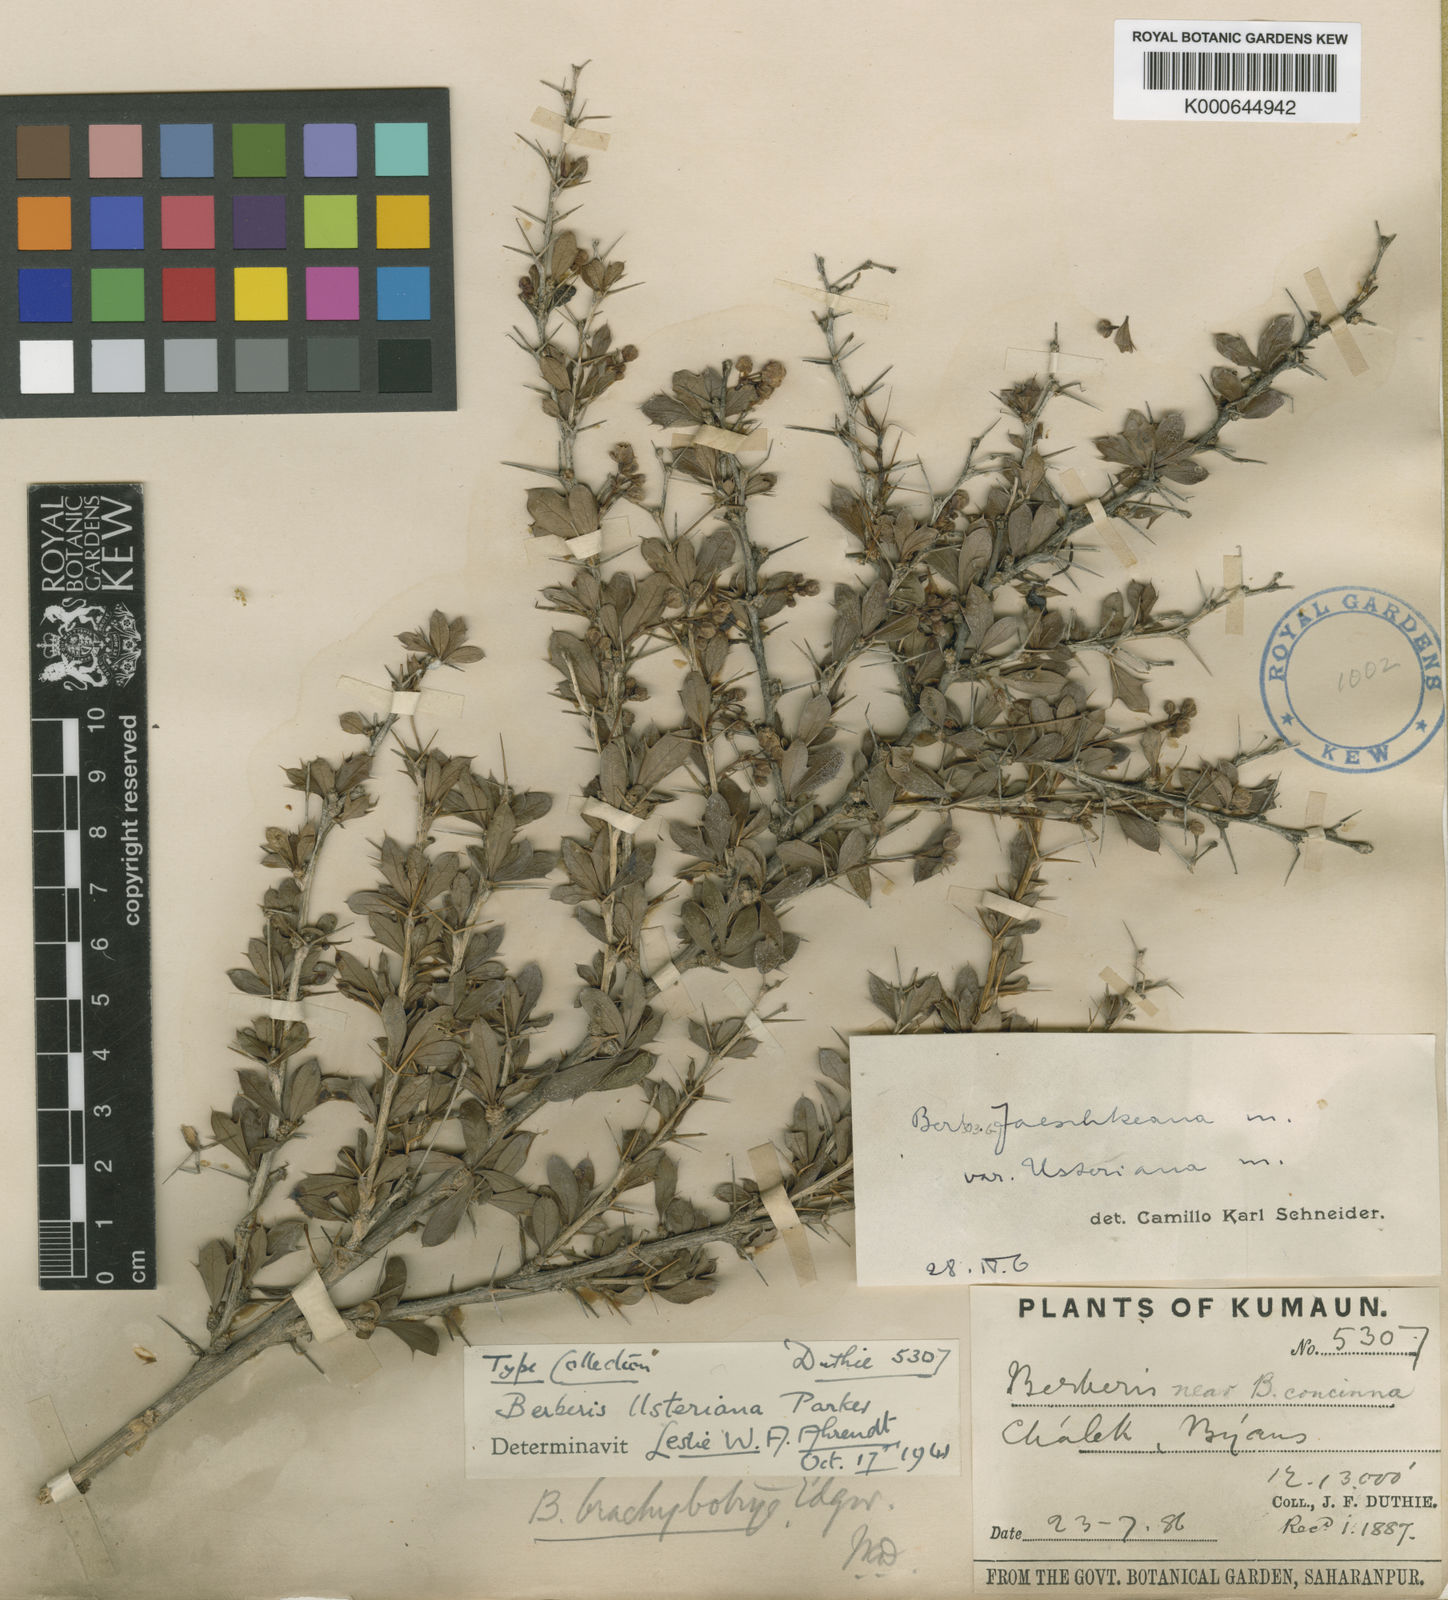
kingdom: Plantae
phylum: Tracheophyta
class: Magnoliopsida
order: Ranunculales
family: Berberidaceae
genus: Berberis
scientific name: Berberis jaeschkeana
